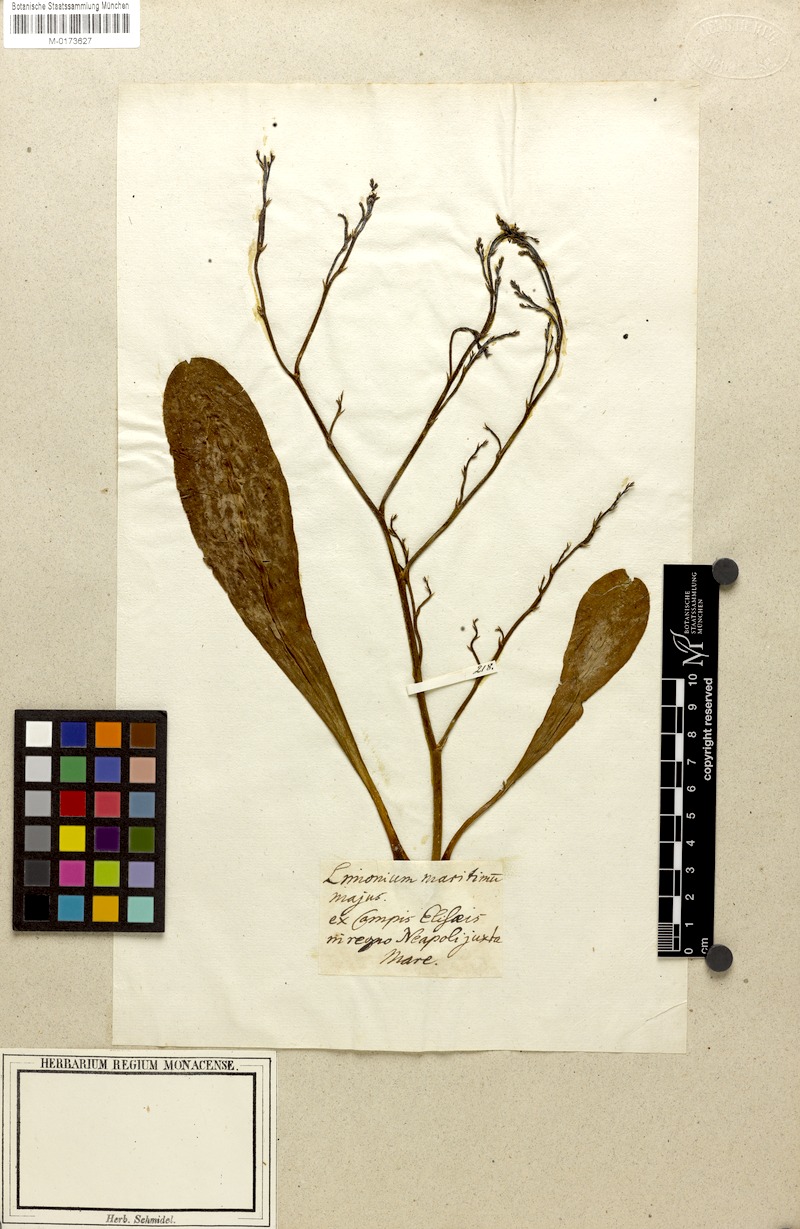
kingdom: Plantae
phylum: Tracheophyta
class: Magnoliopsida
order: Caryophyllales
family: Plumbaginaceae
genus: Limonium
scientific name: Limonium vulgare
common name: Common sea-lavender
